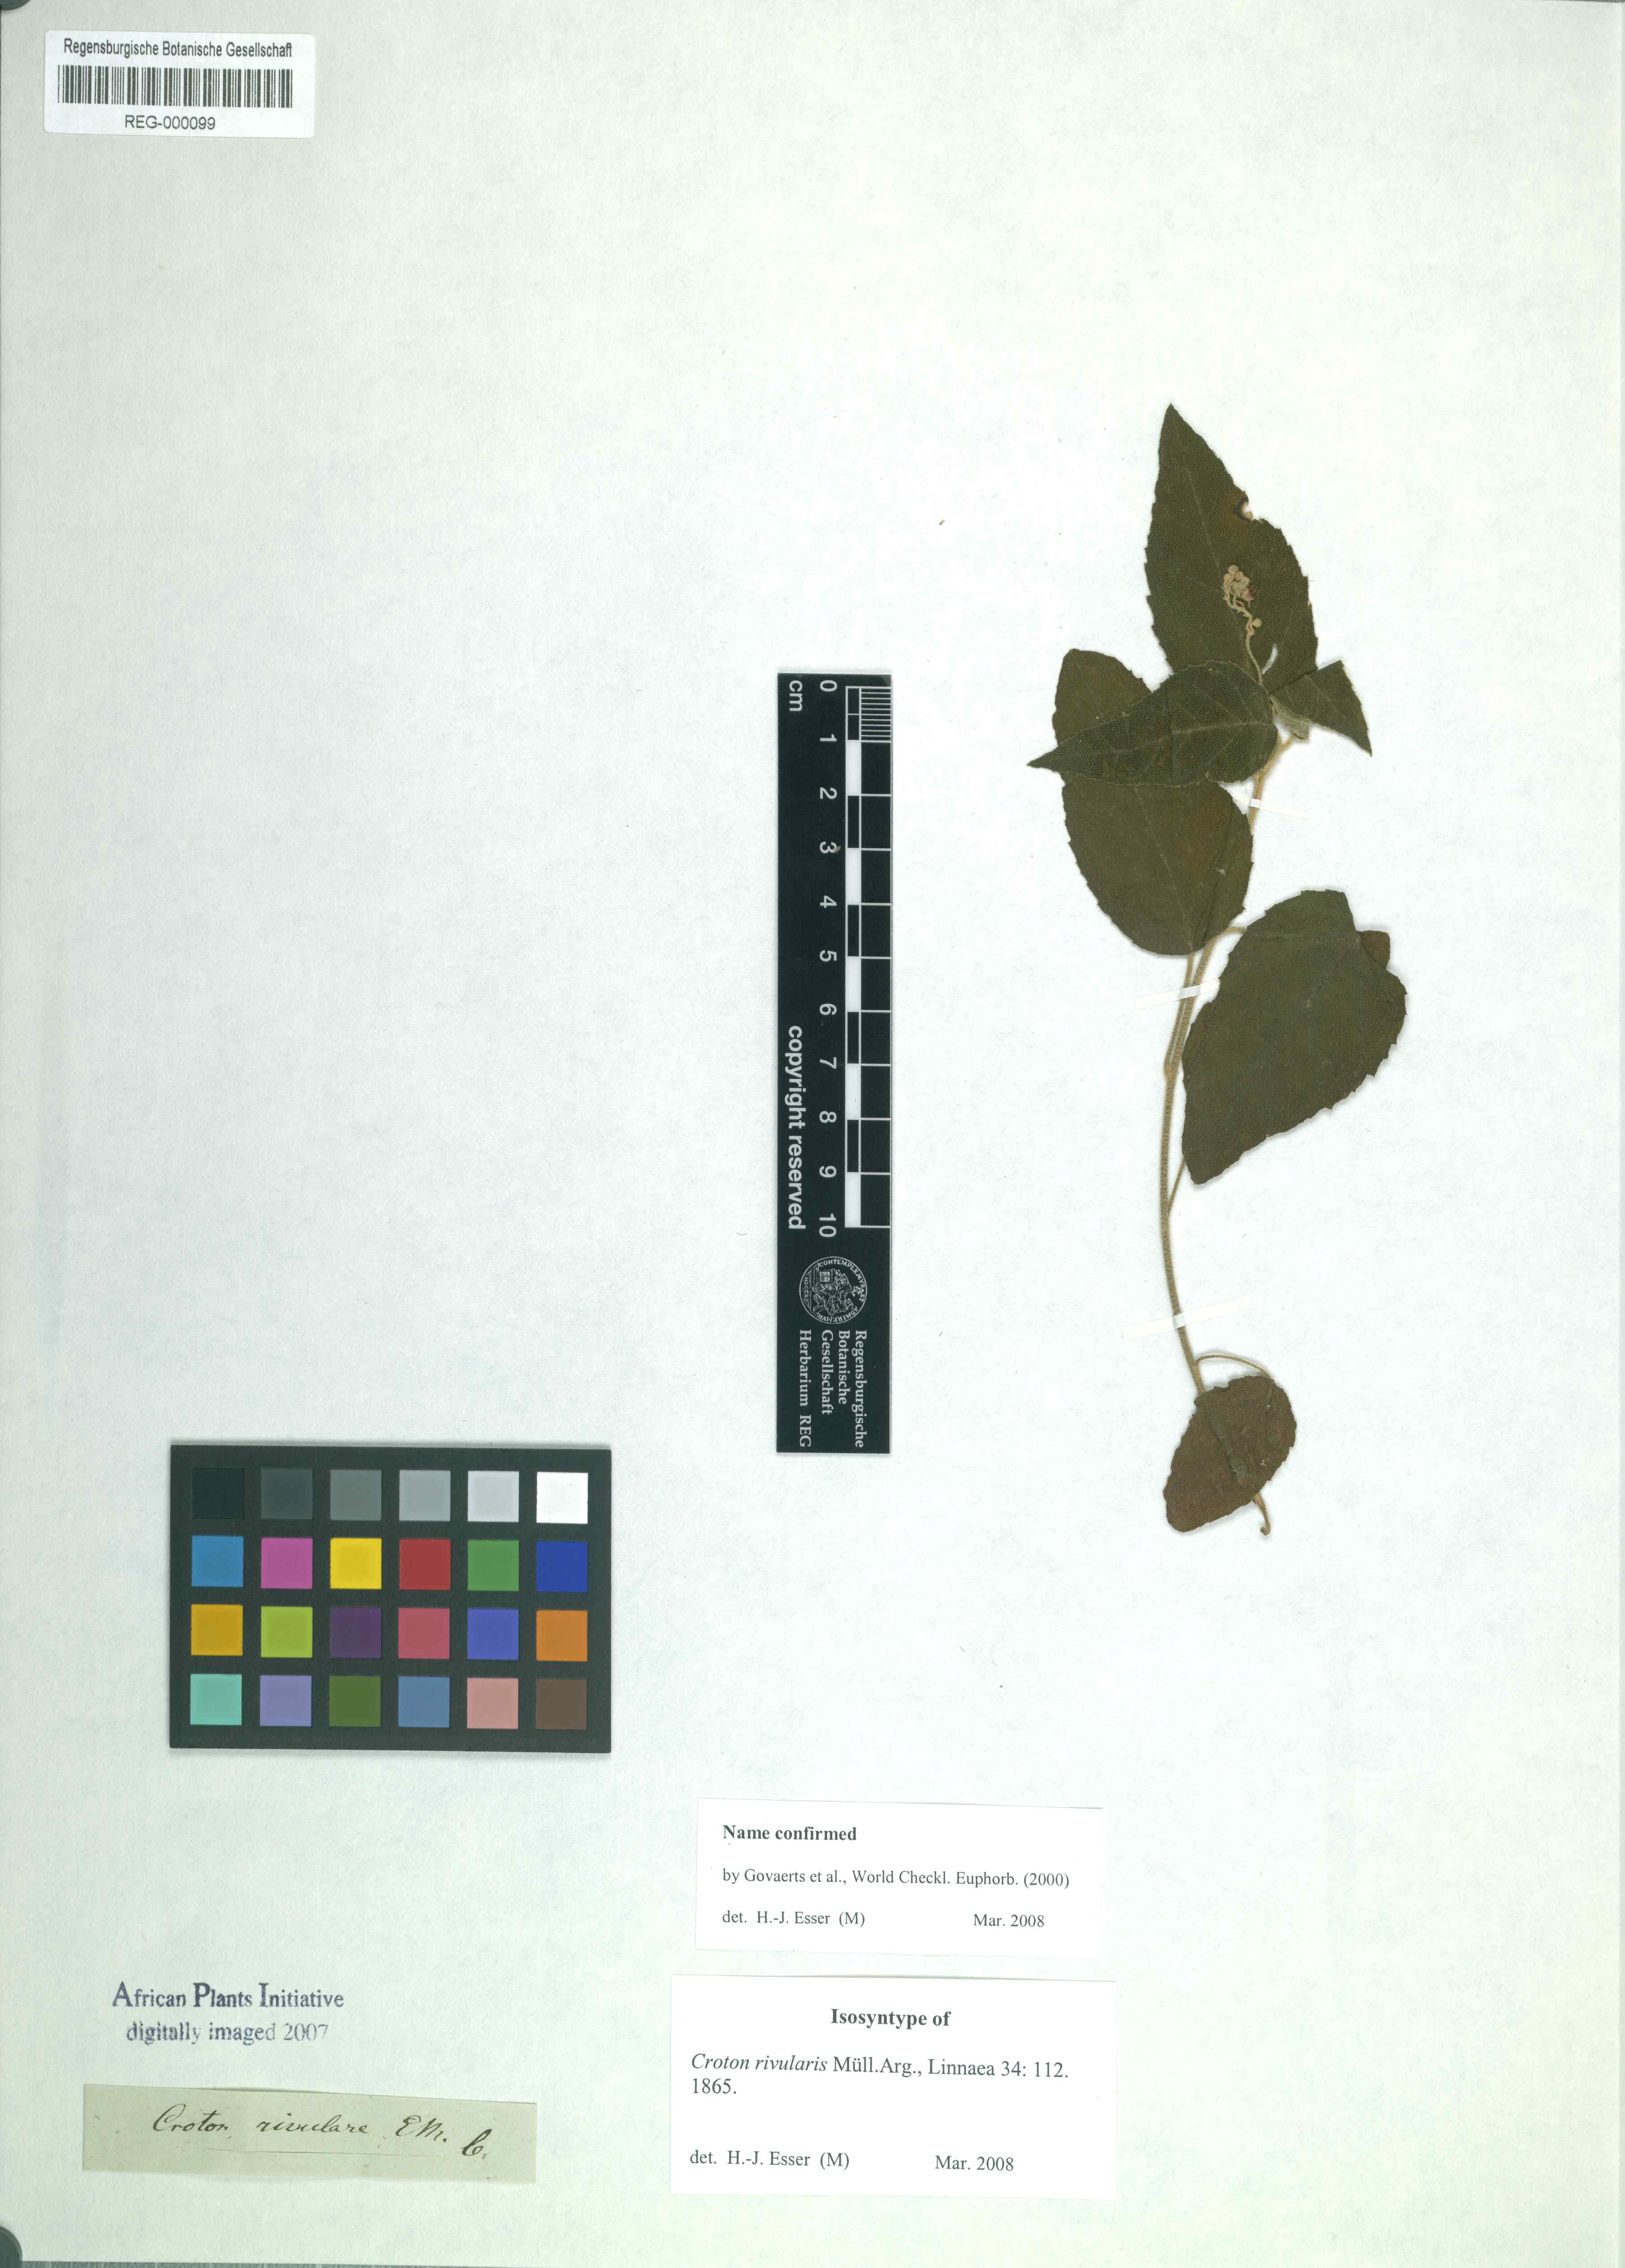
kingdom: Plantae
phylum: Tracheophyta
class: Magnoliopsida
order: Malpighiales
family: Euphorbiaceae
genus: Croton
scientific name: Croton rivularis
